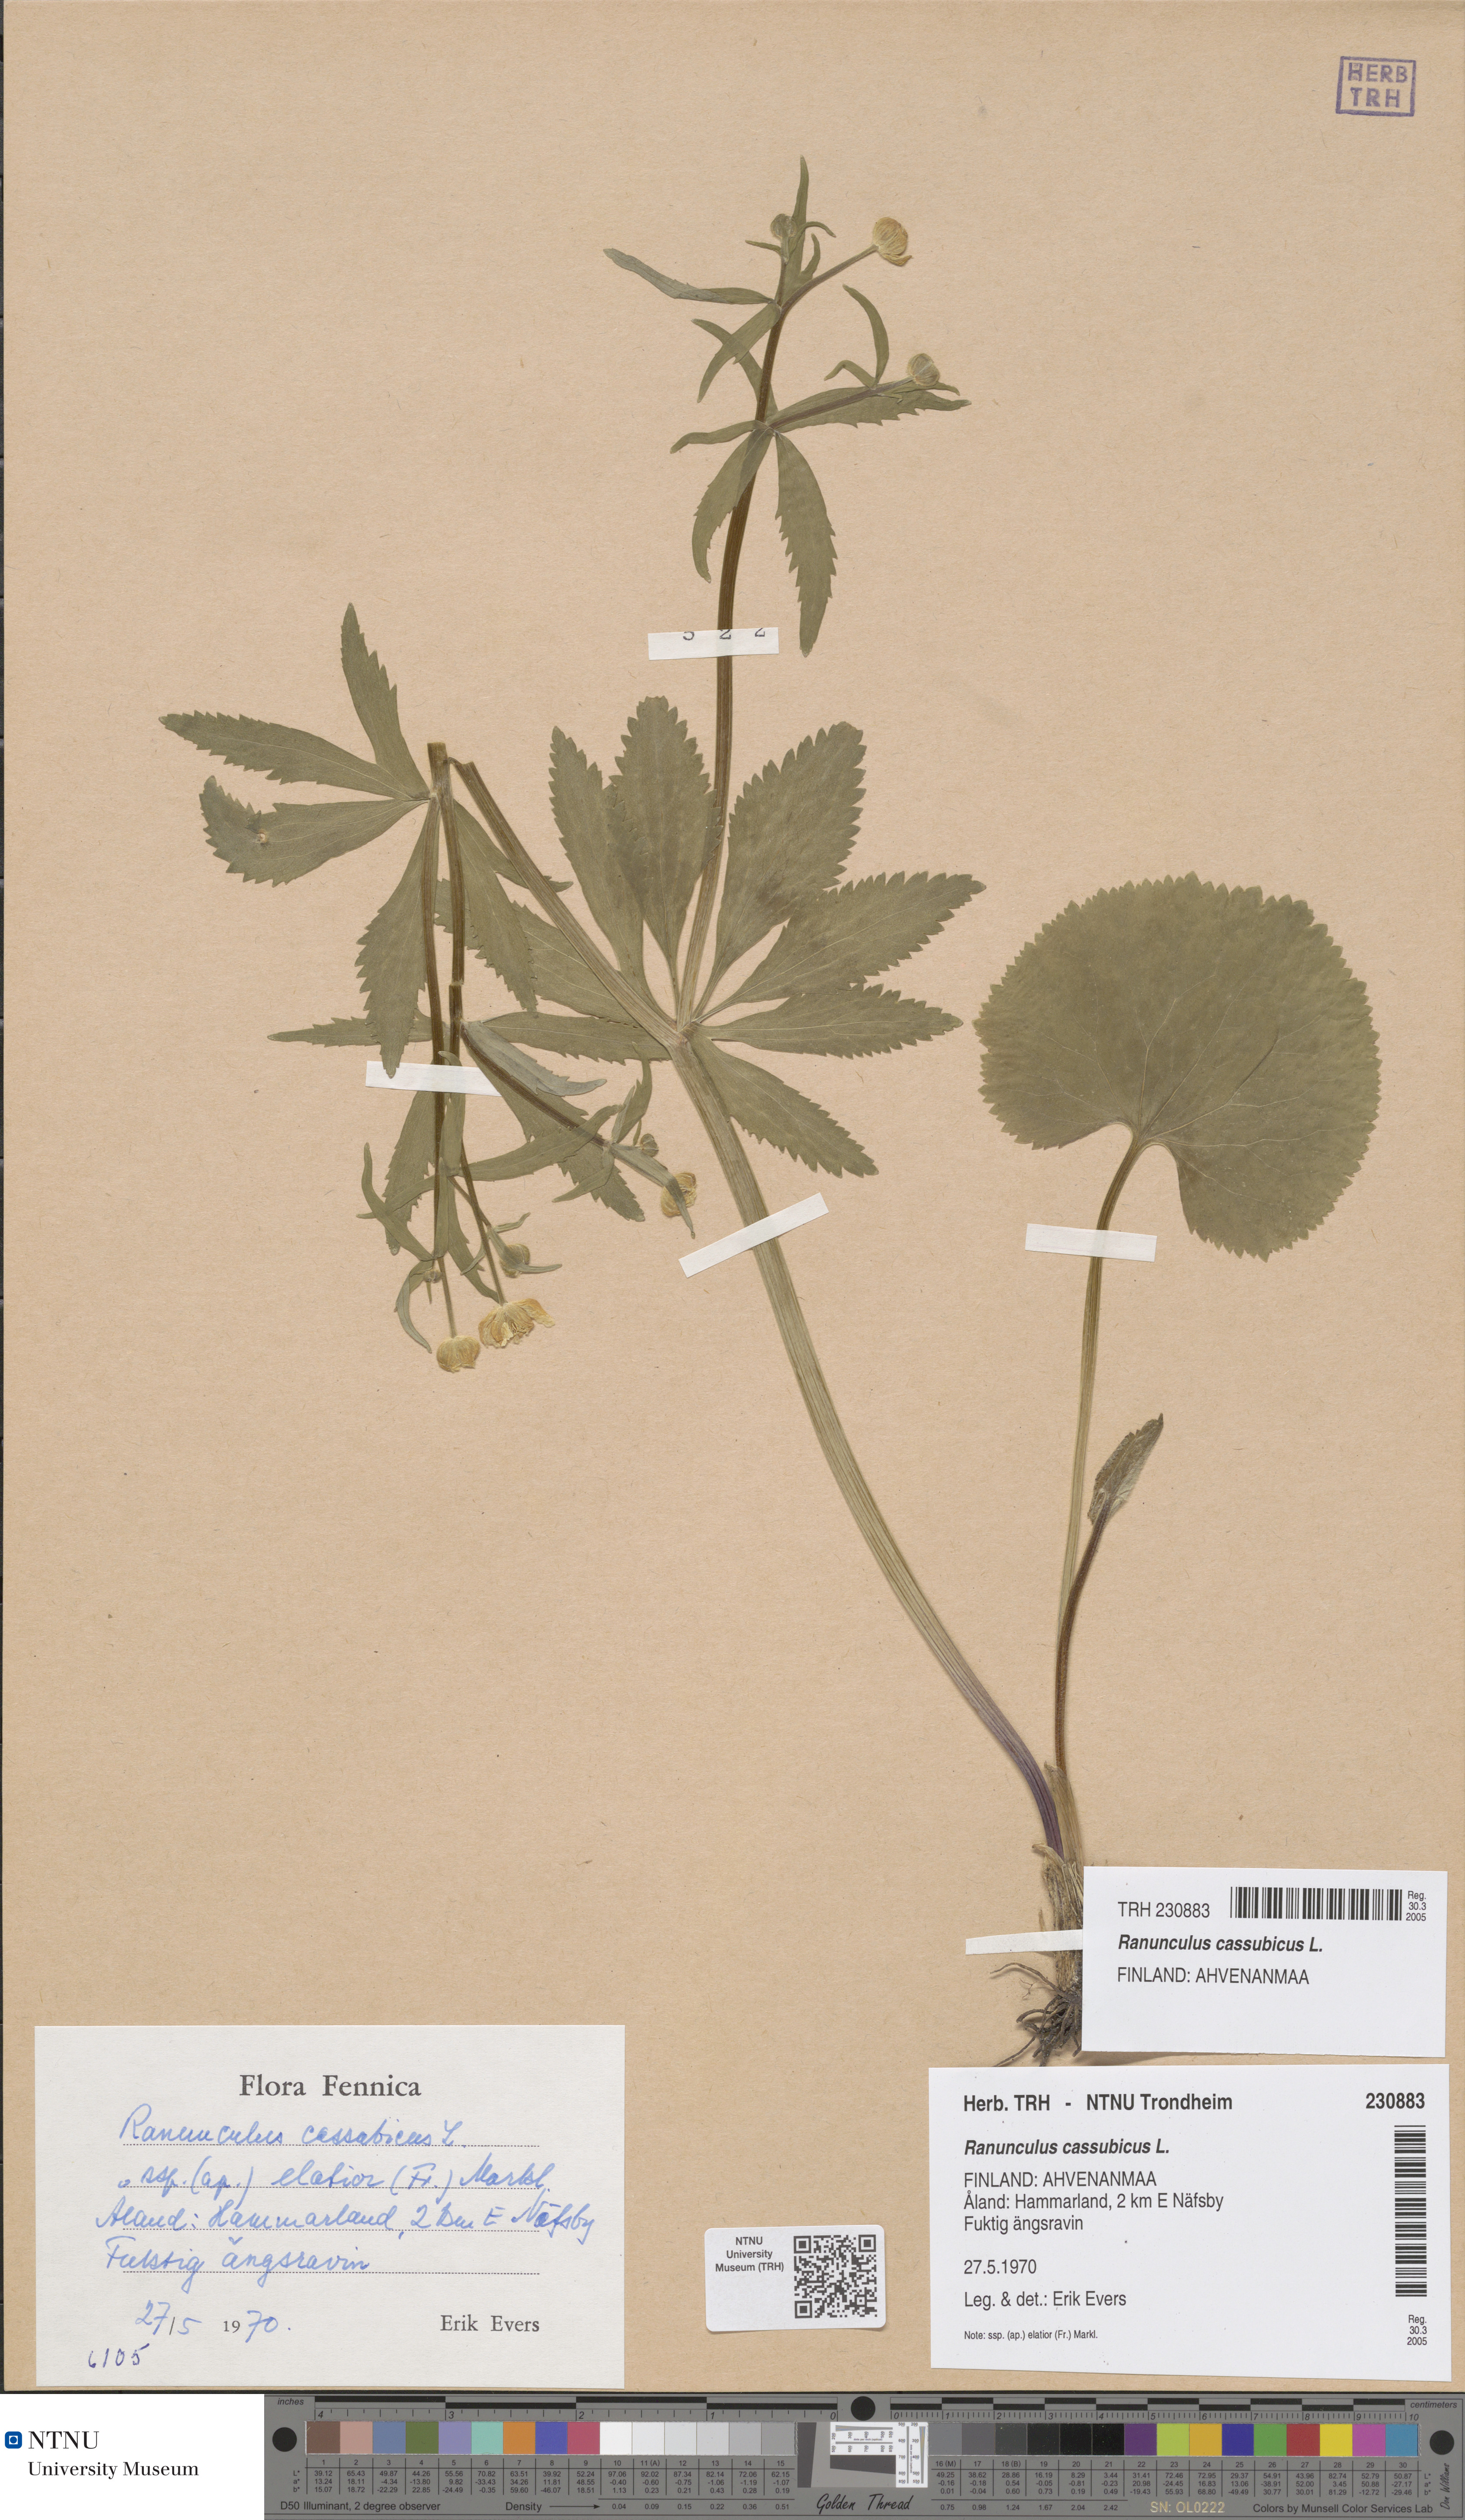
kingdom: Plantae
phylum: Tracheophyta
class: Magnoliopsida
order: Ranunculales
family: Ranunculaceae
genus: Ranunculus
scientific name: Ranunculus cassubicus
